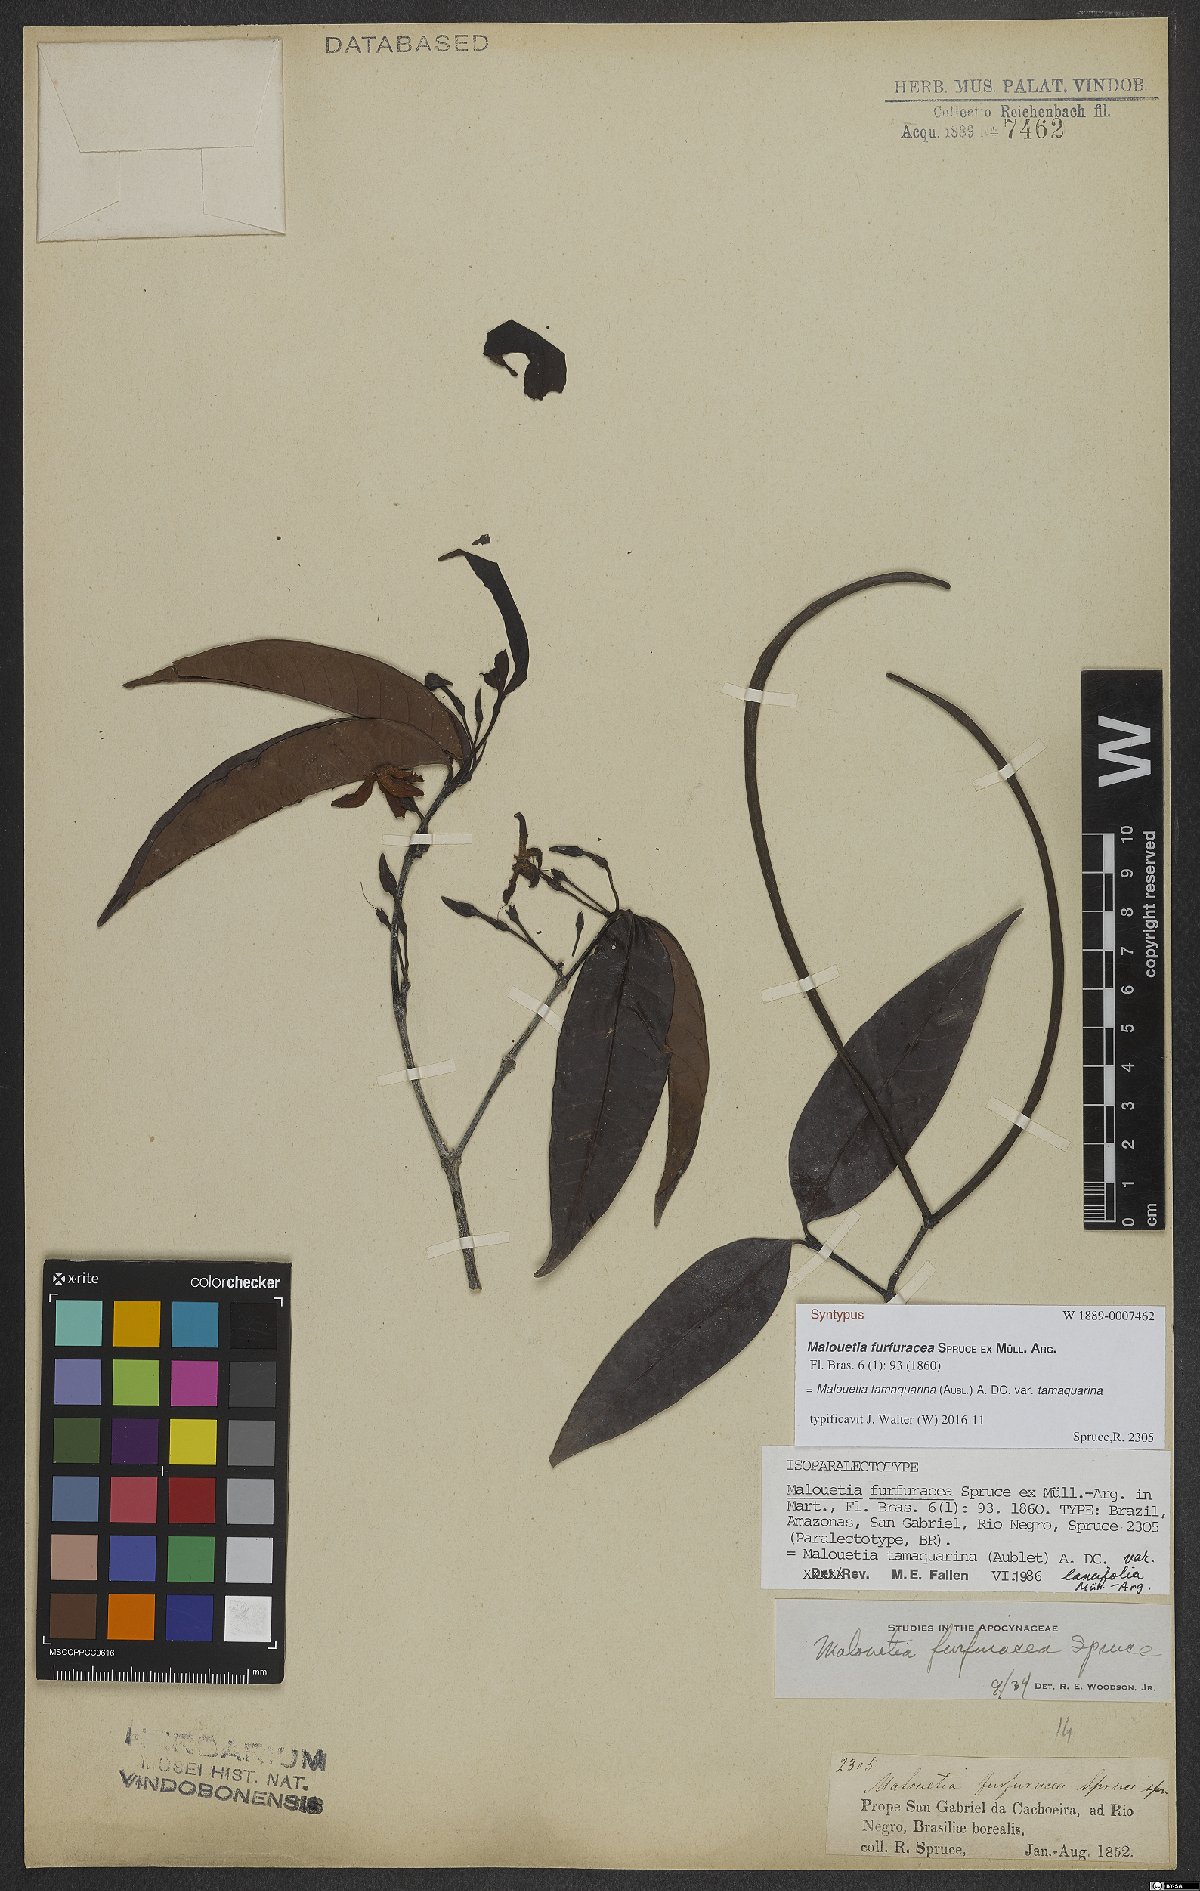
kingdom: Plantae
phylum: Tracheophyta
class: Magnoliopsida
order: Gentianales
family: Apocynaceae
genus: Malouetia
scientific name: Malouetia tamaquarina
